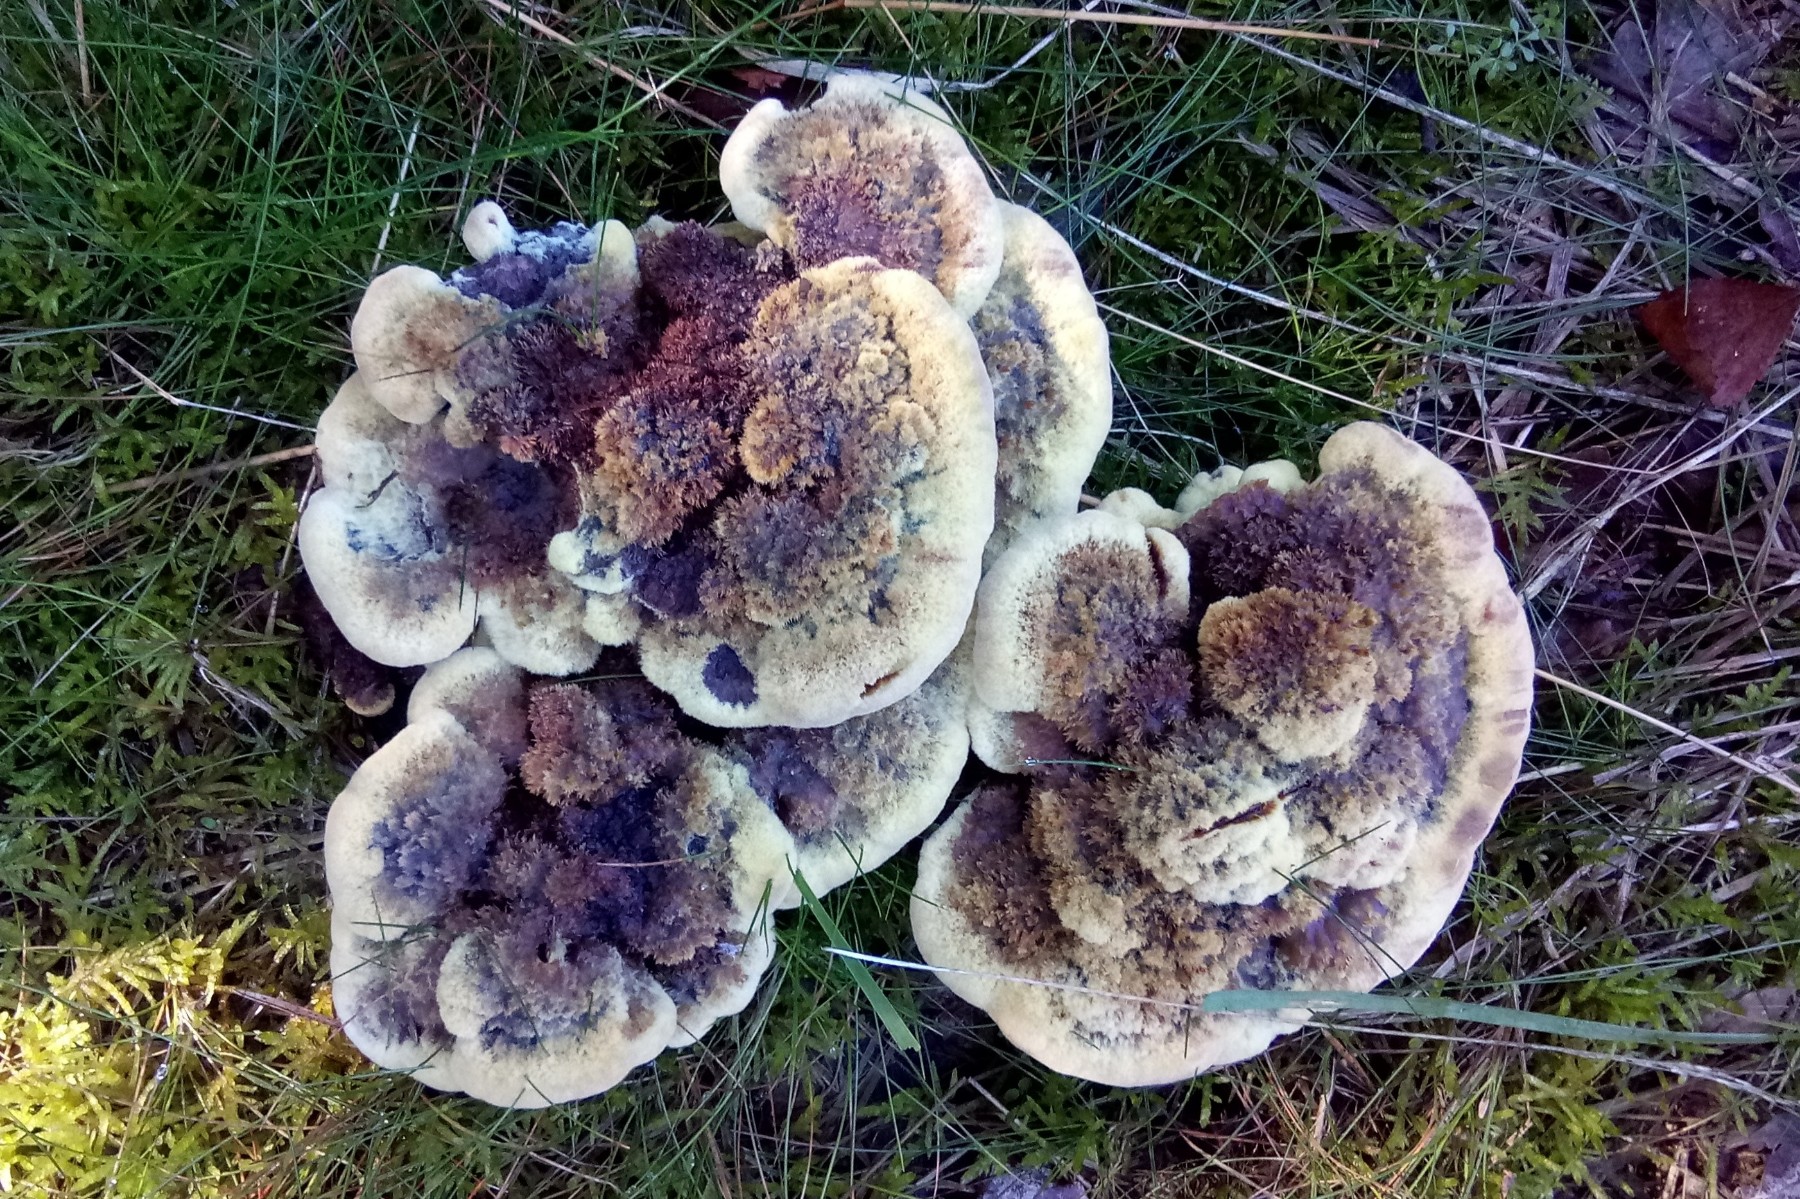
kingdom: Fungi
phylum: Basidiomycota
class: Agaricomycetes
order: Polyporales
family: Laetiporaceae
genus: Phaeolus
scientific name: Phaeolus schweinitzii
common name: brunporesvamp
